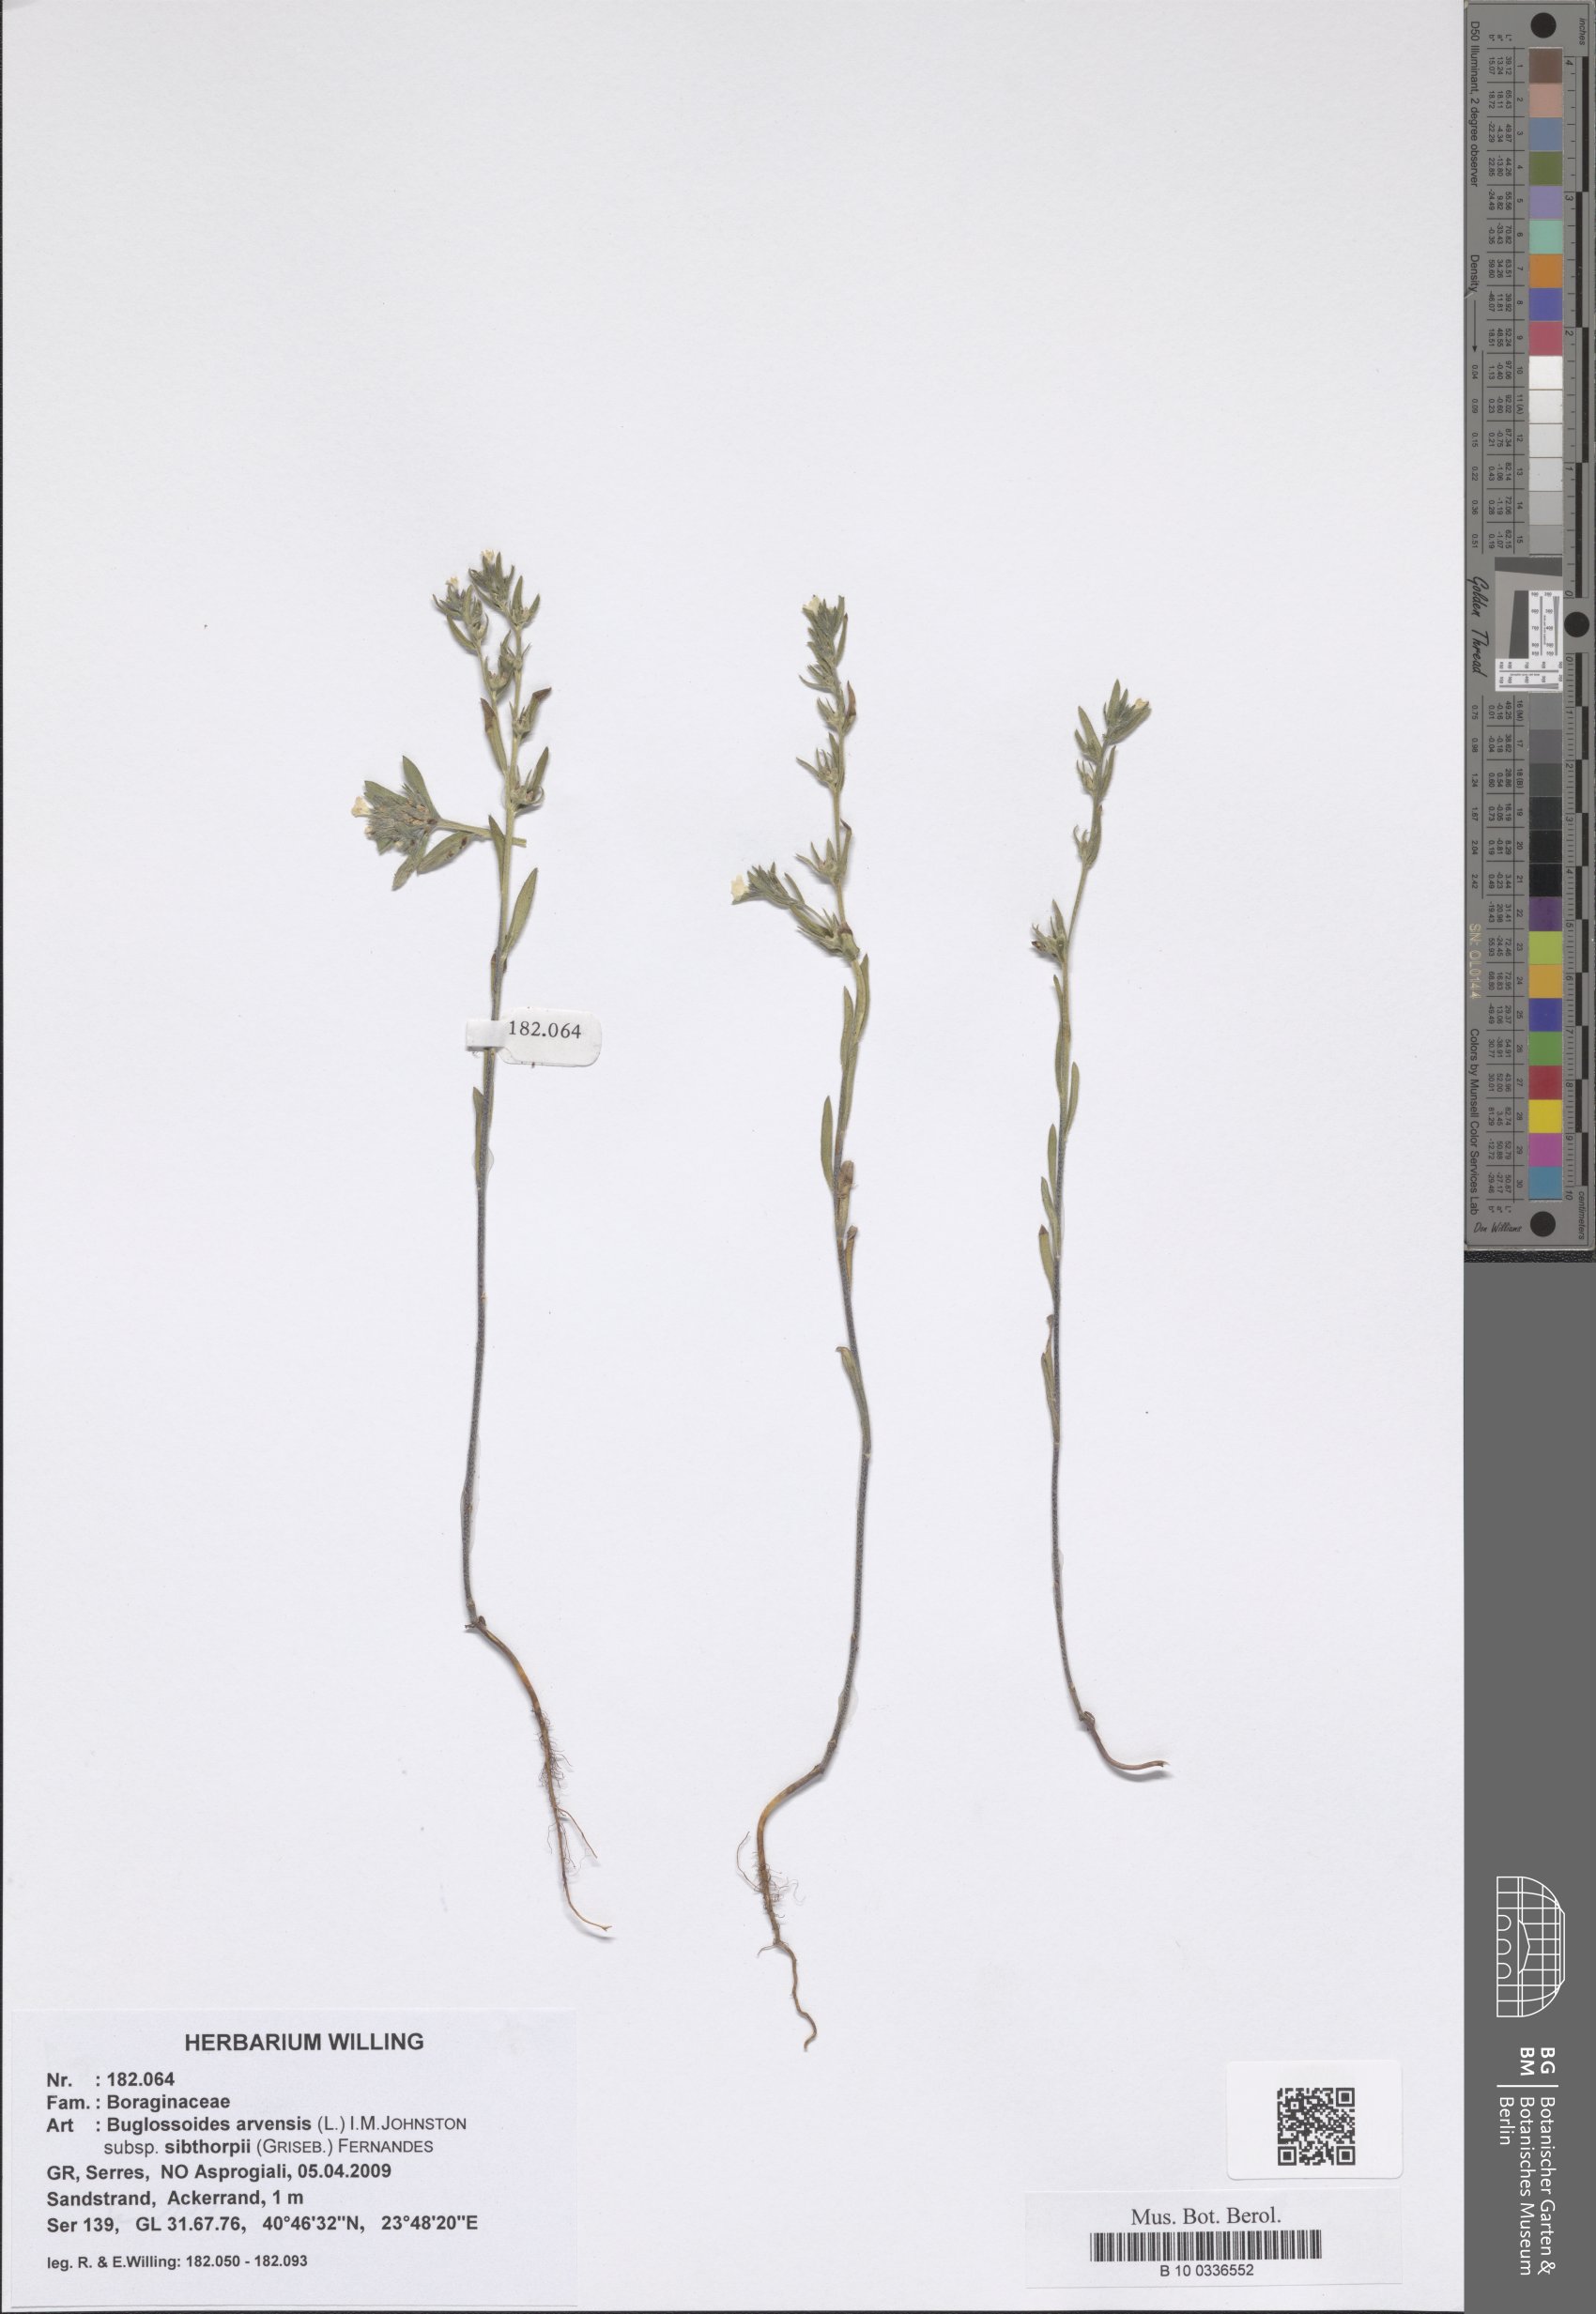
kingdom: Plantae
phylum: Tracheophyta
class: Magnoliopsida
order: Boraginales
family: Boraginaceae
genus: Buglossoides
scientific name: Buglossoides arvensis
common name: Corn gromwell
